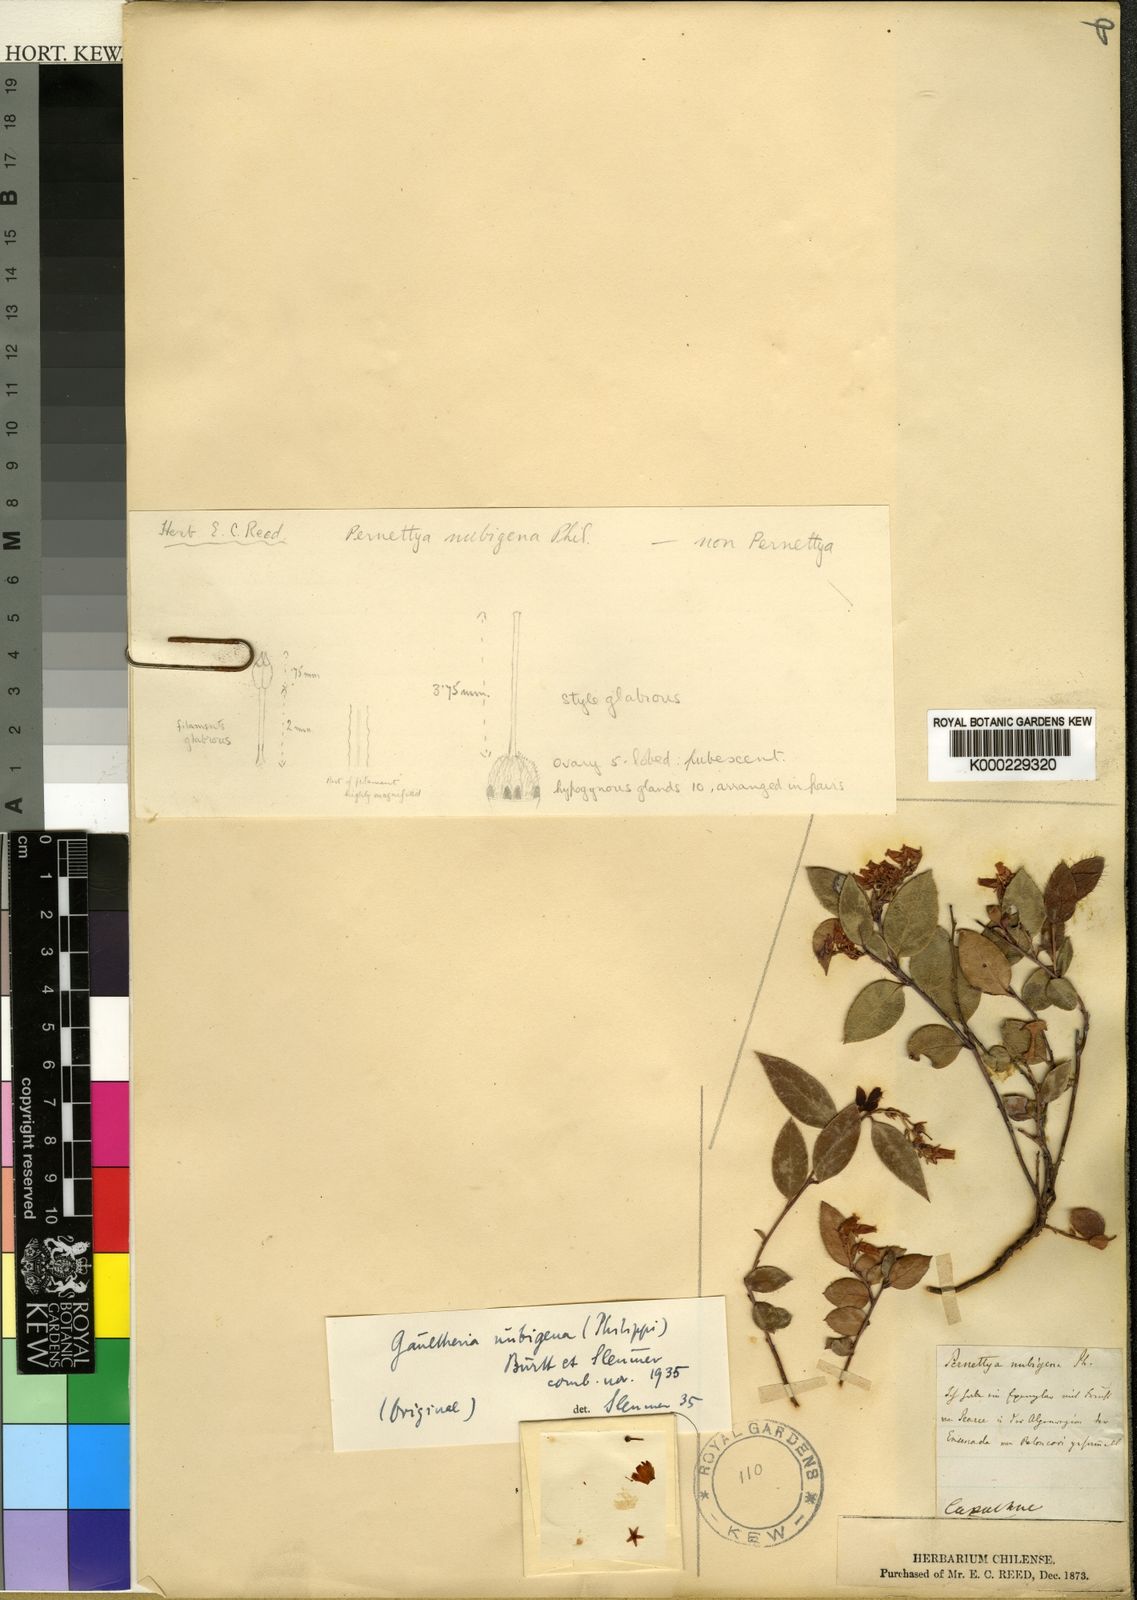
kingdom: Plantae
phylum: Tracheophyta
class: Magnoliopsida
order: Ericales
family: Ericaceae
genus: Gaultheria
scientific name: Gaultheria nubigena
